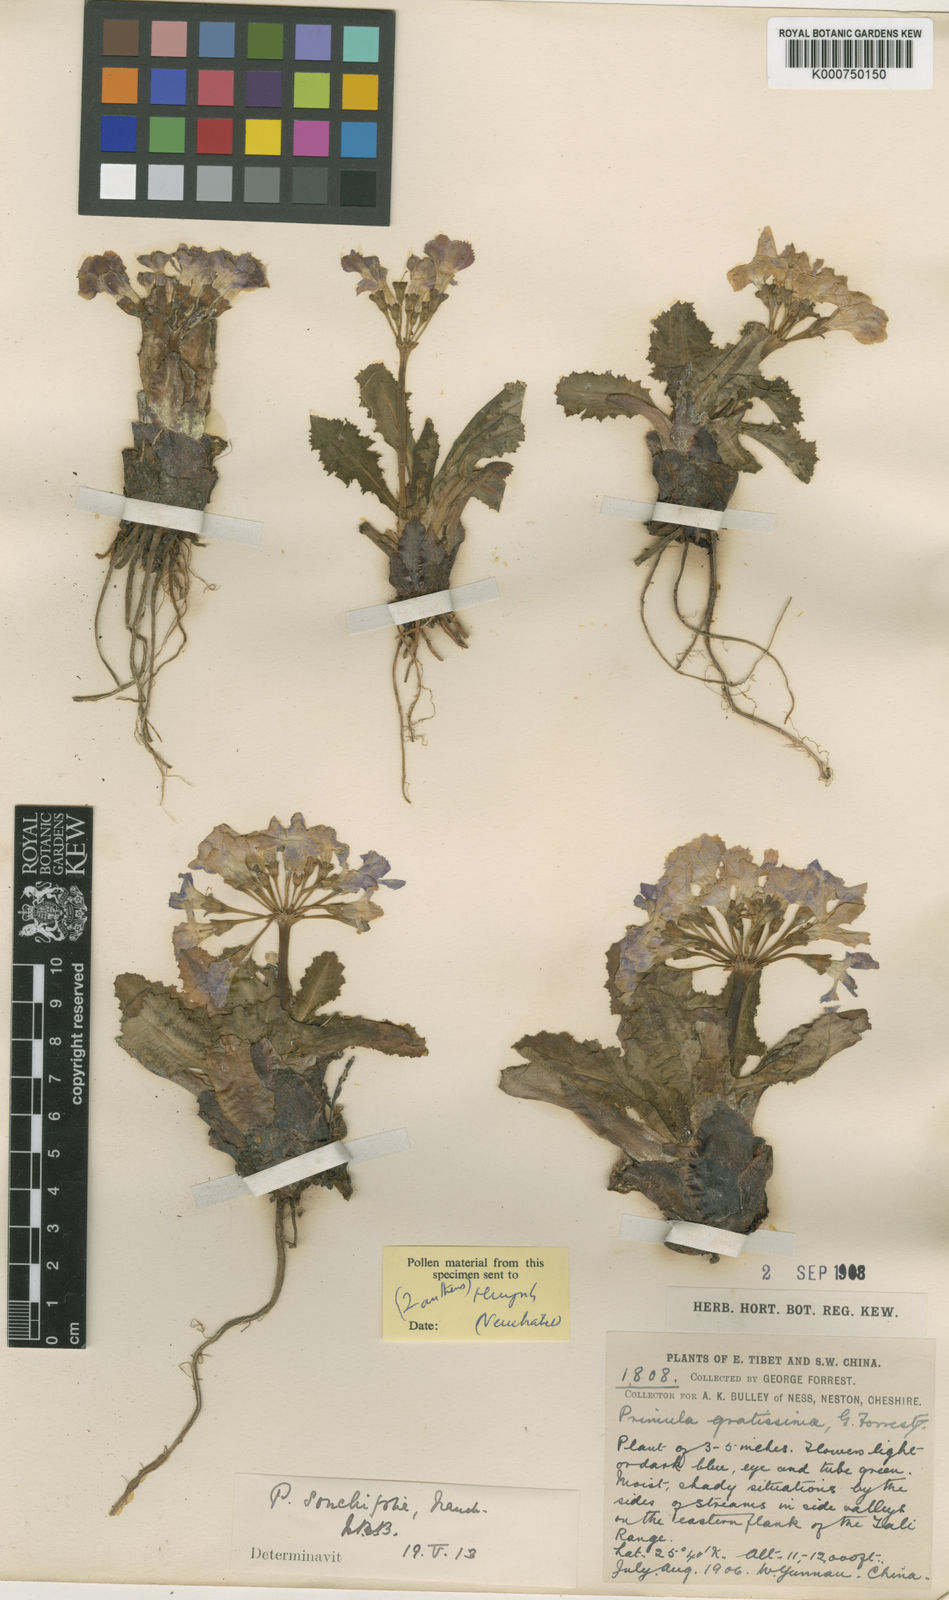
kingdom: Plantae
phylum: Tracheophyta
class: Magnoliopsida
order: Ericales
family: Primulaceae
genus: Primula
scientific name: Primula sonchifolia
